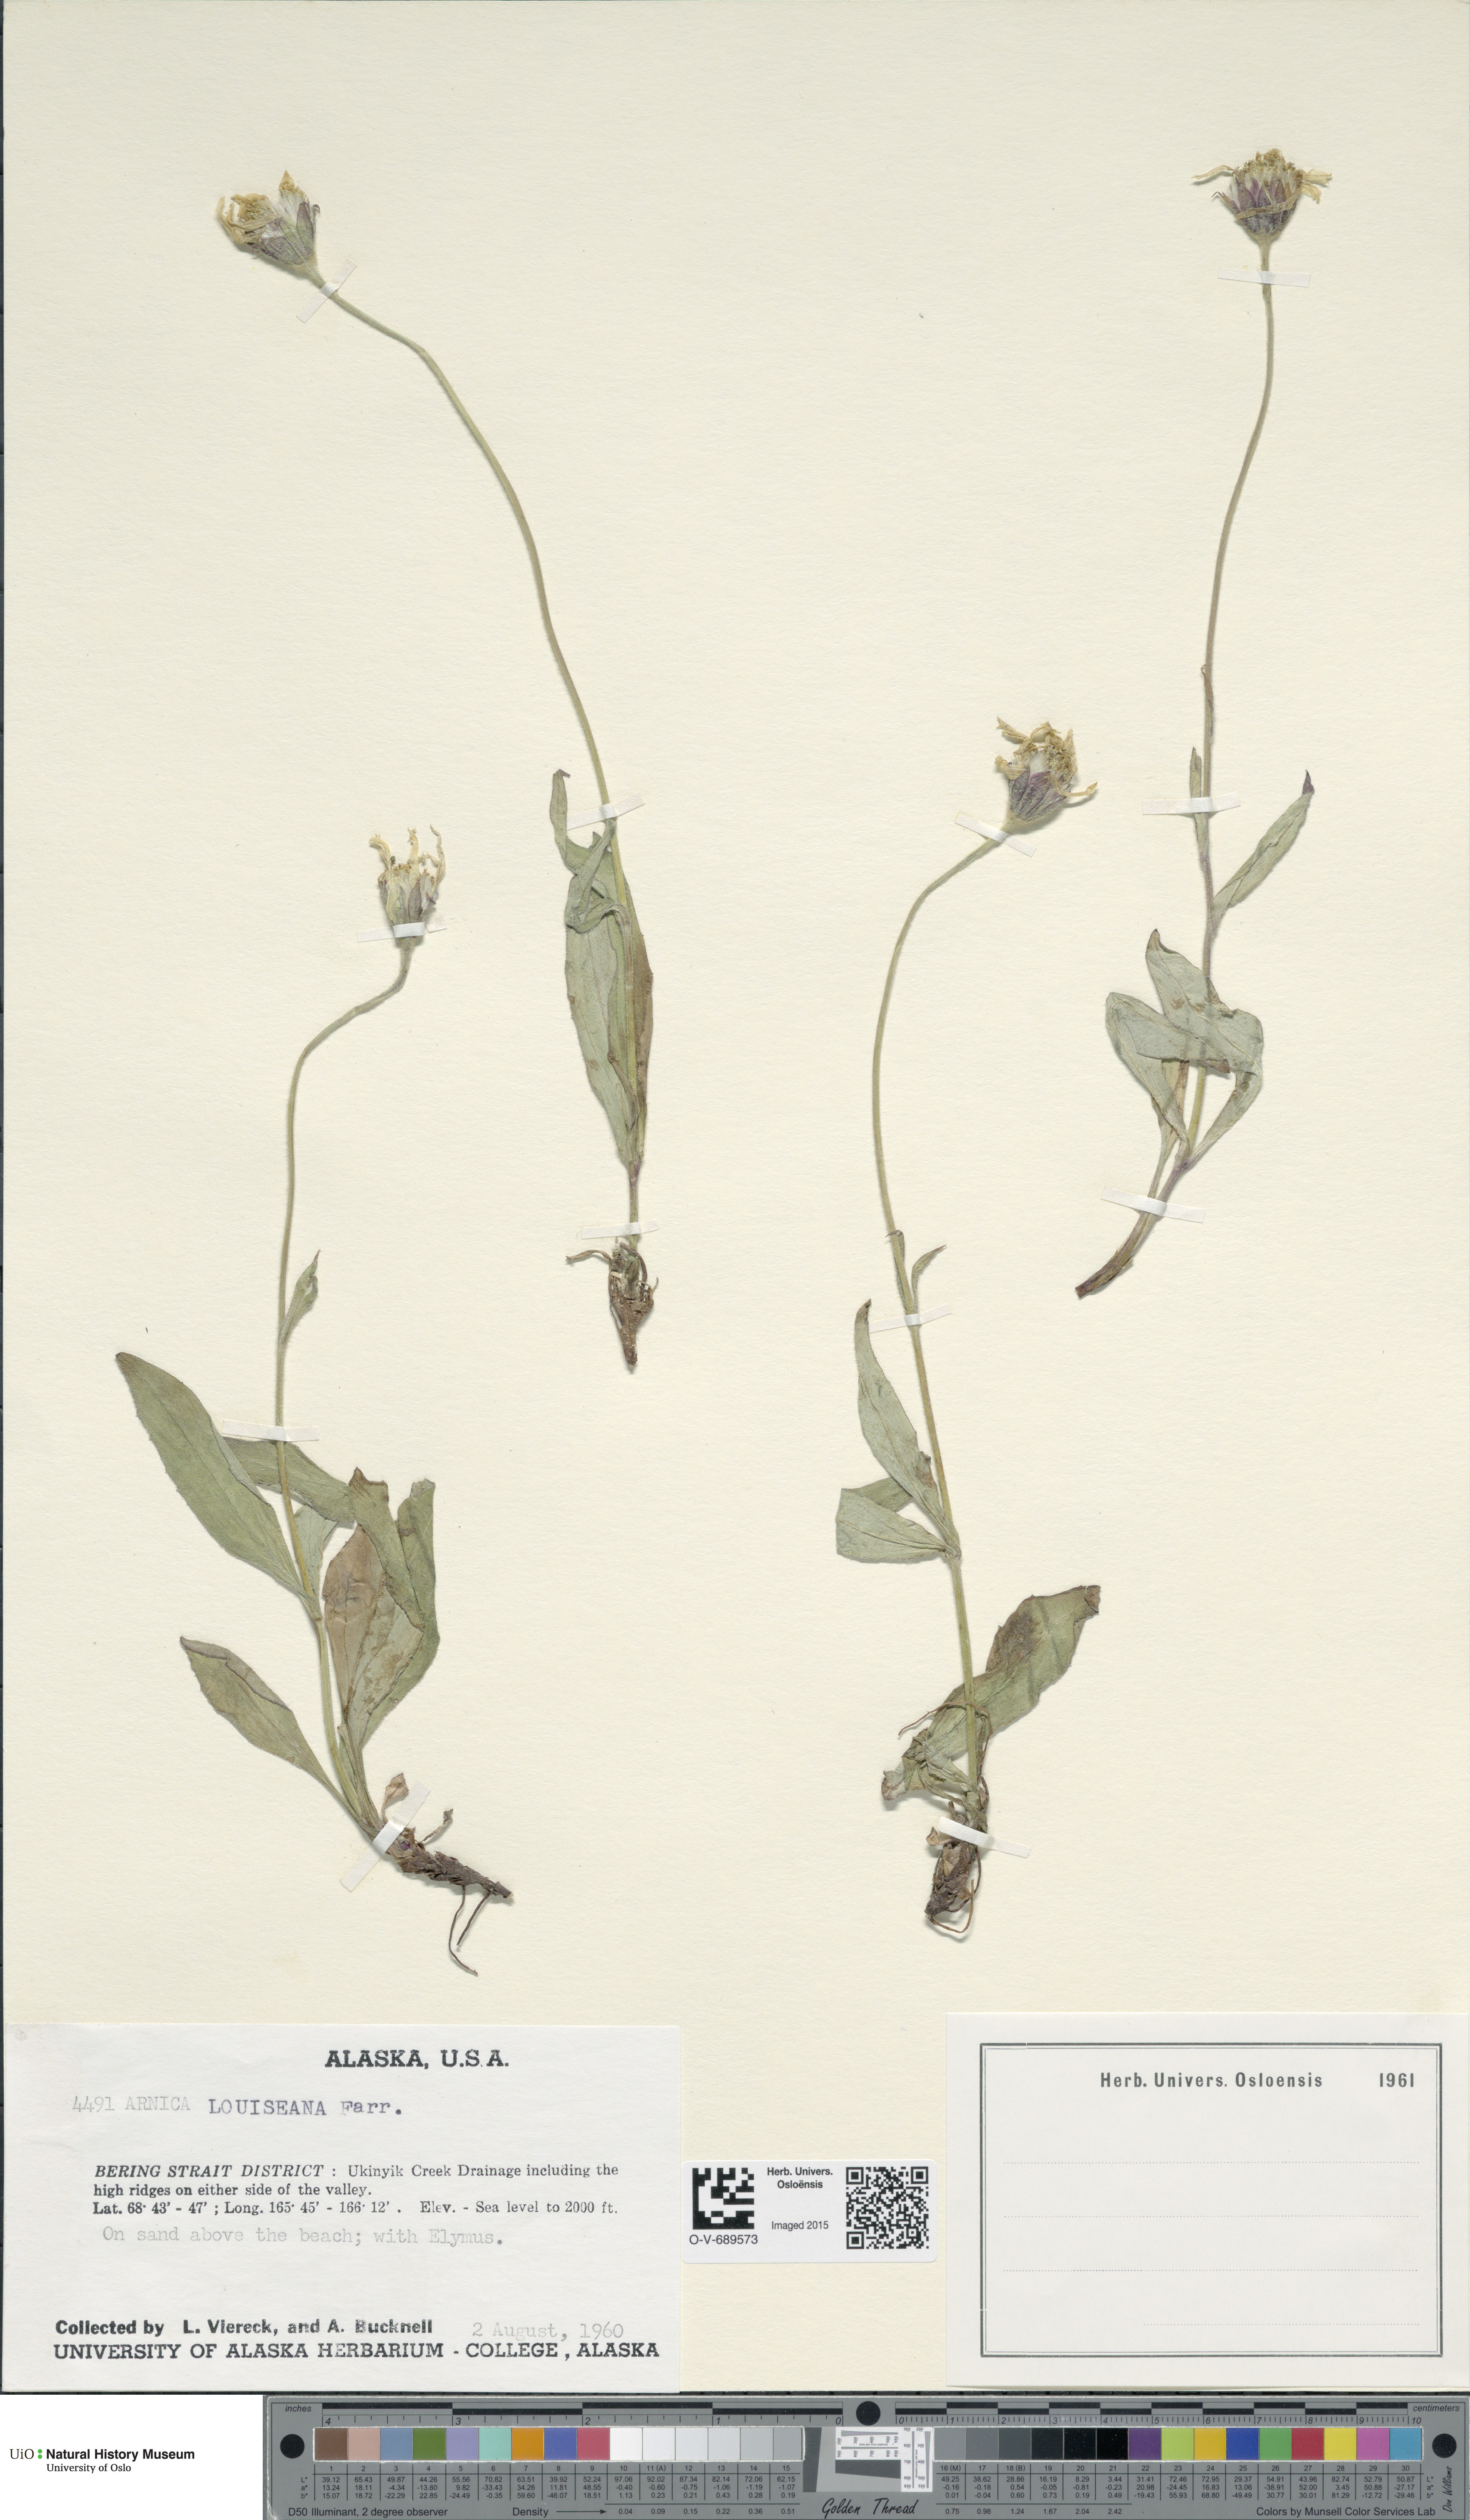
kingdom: Plantae
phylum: Tracheophyta
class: Magnoliopsida
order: Asterales
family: Asteraceae
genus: Arnica
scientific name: Arnica louiseana
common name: Lake louise arnica
